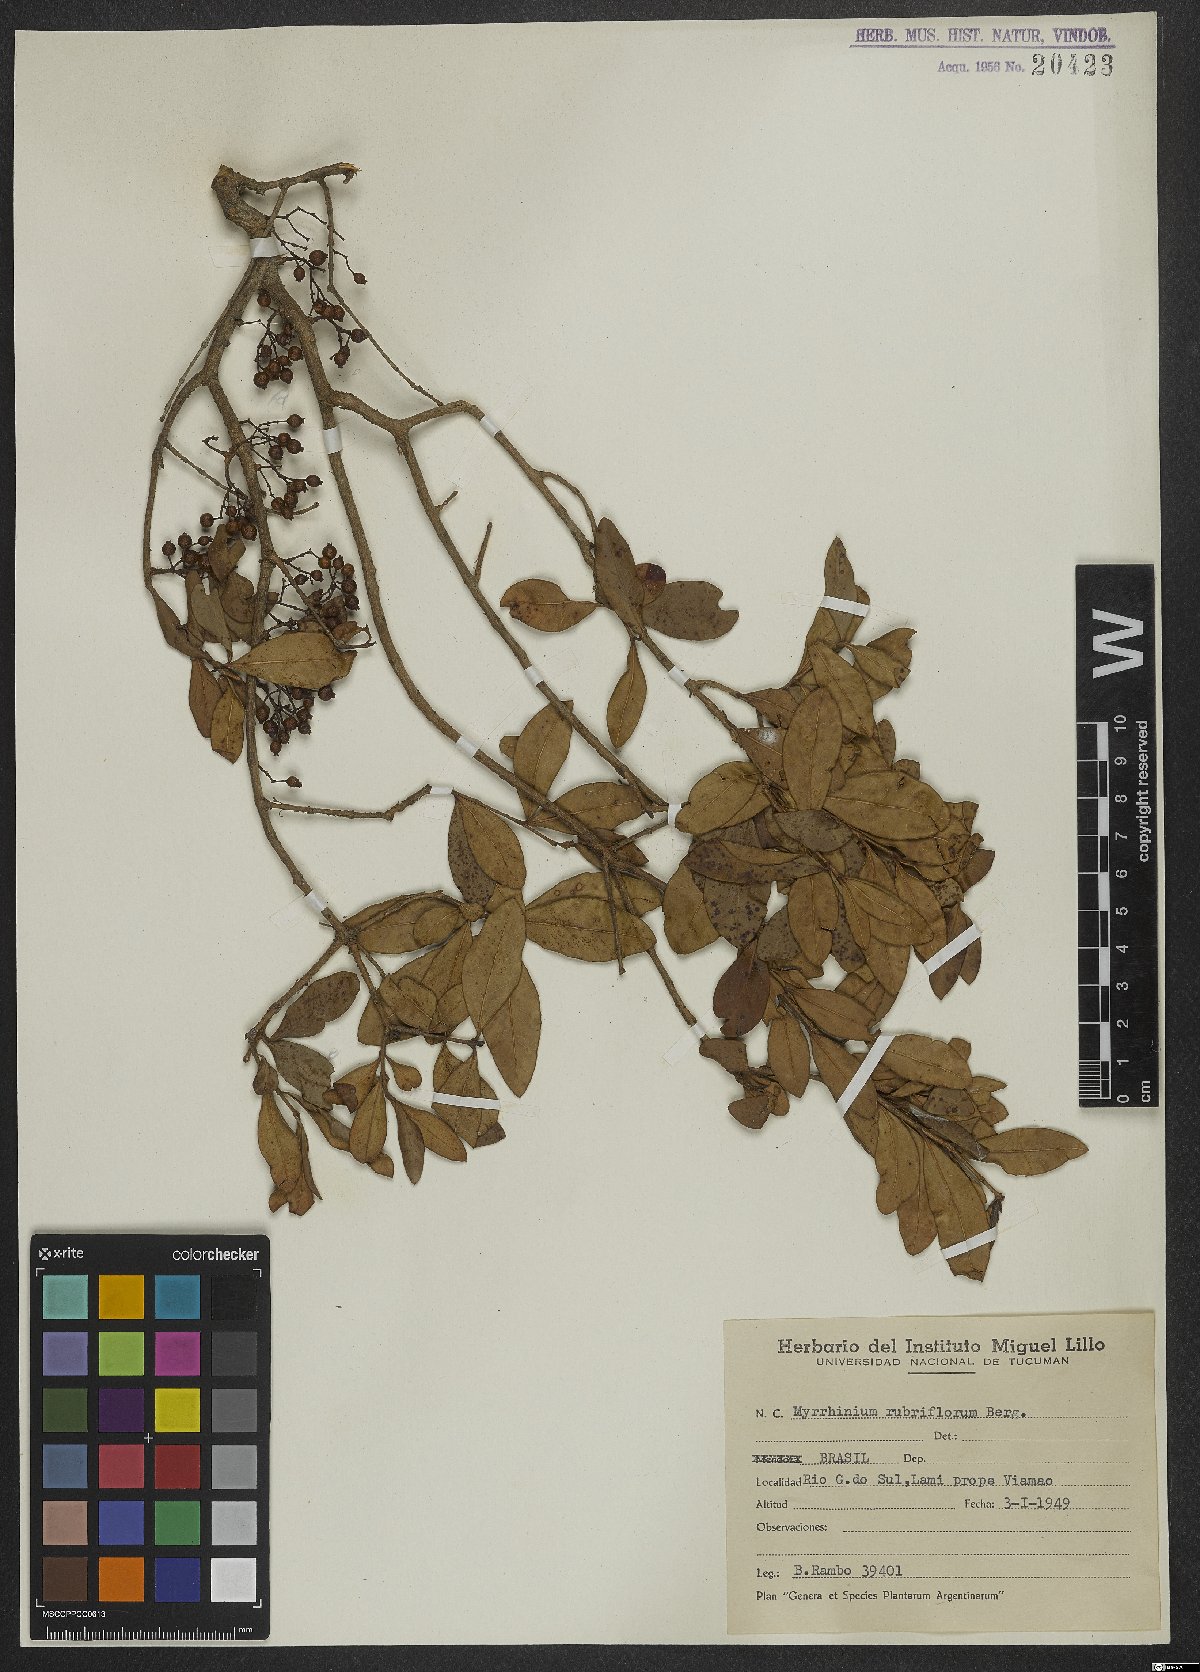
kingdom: Plantae
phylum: Tracheophyta
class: Magnoliopsida
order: Myrtales
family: Myrtaceae
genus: Myrrhinium
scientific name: Myrrhinium atropurpureum
